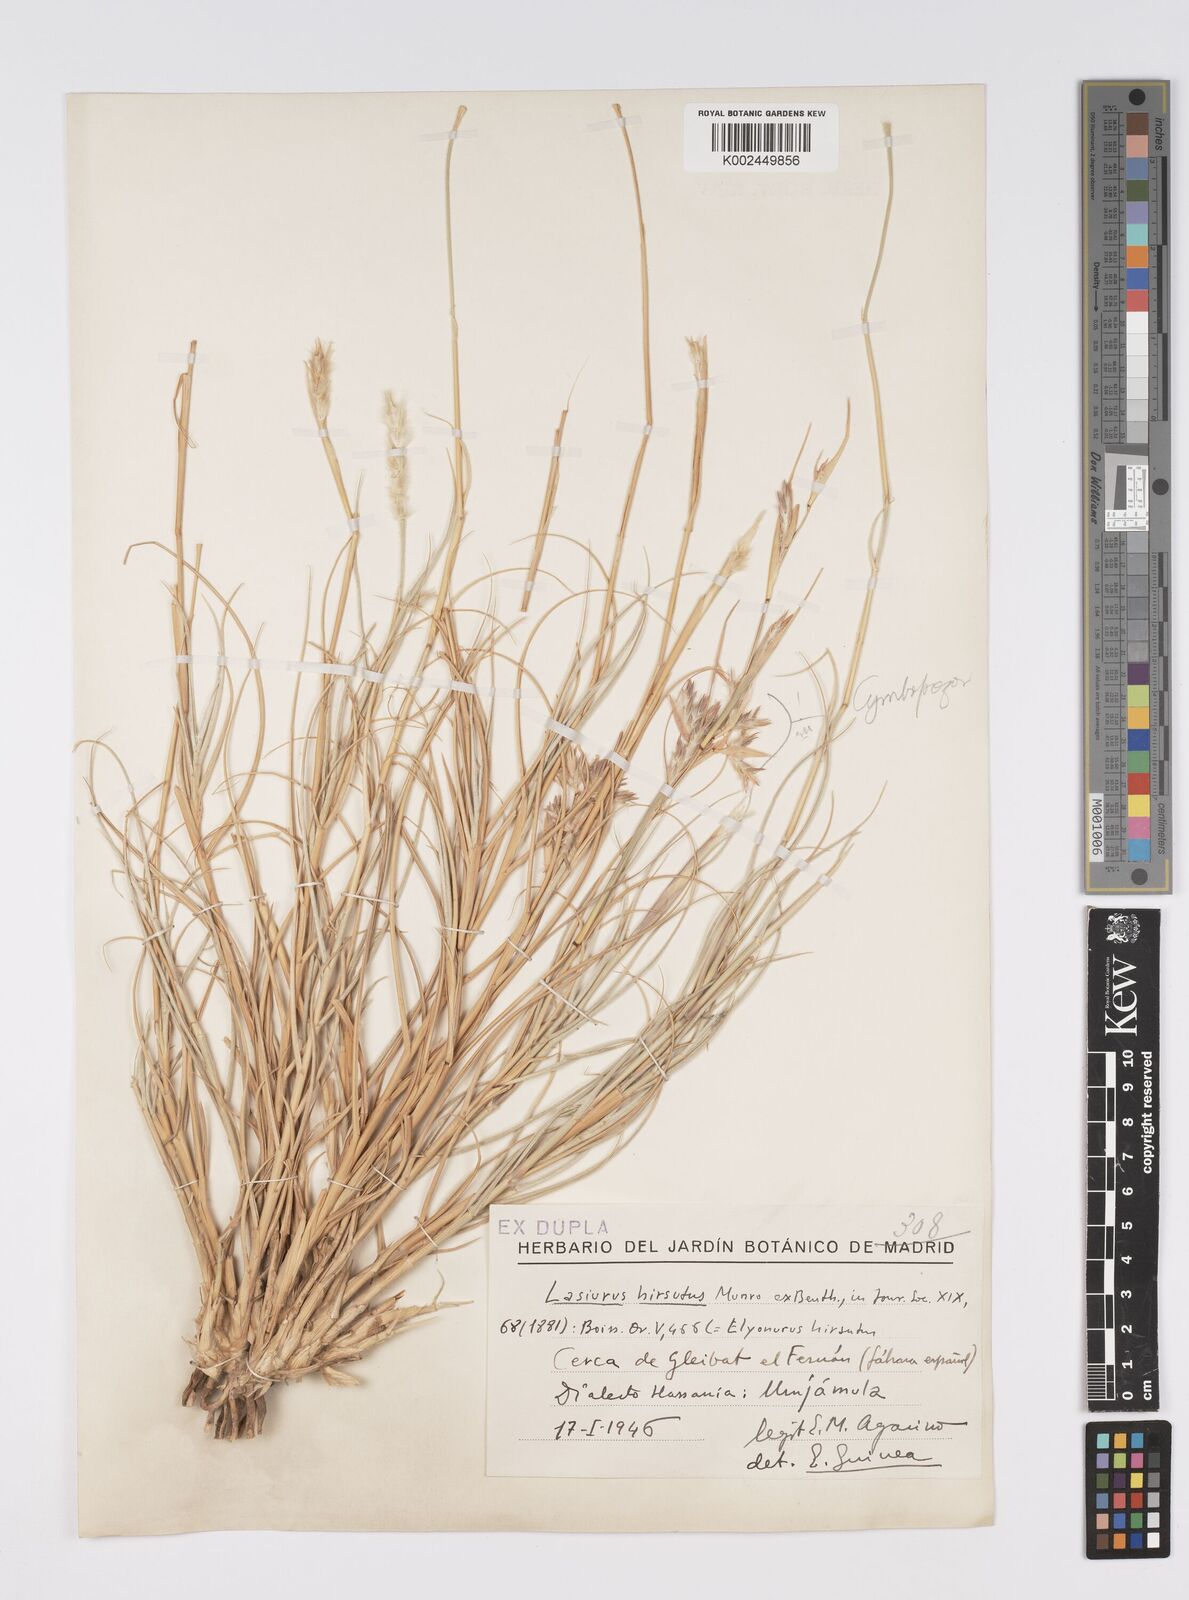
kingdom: Plantae
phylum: Tracheophyta
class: Liliopsida
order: Poales
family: Poaceae
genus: Lasiurus
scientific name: Lasiurus scindicus
